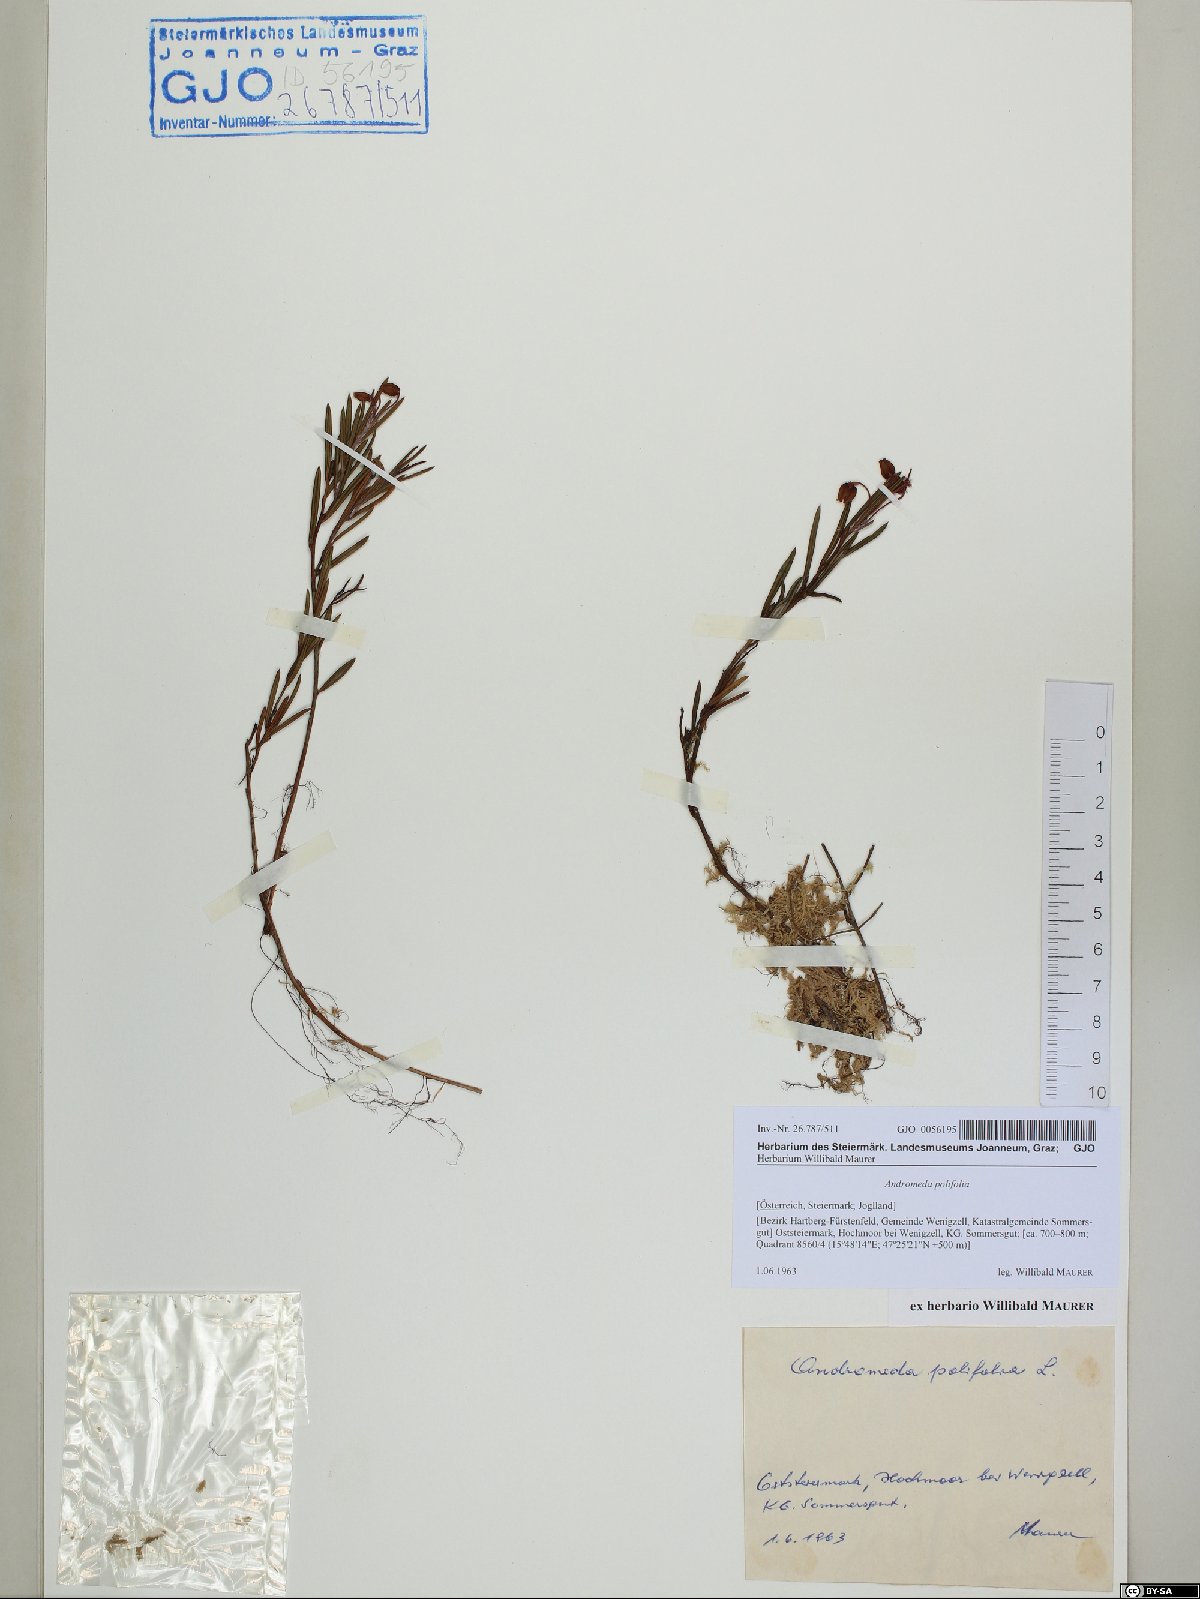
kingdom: Plantae
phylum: Tracheophyta
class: Magnoliopsida
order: Ericales
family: Ericaceae
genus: Andromeda
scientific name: Andromeda polifolia
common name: Bog-rosemary
